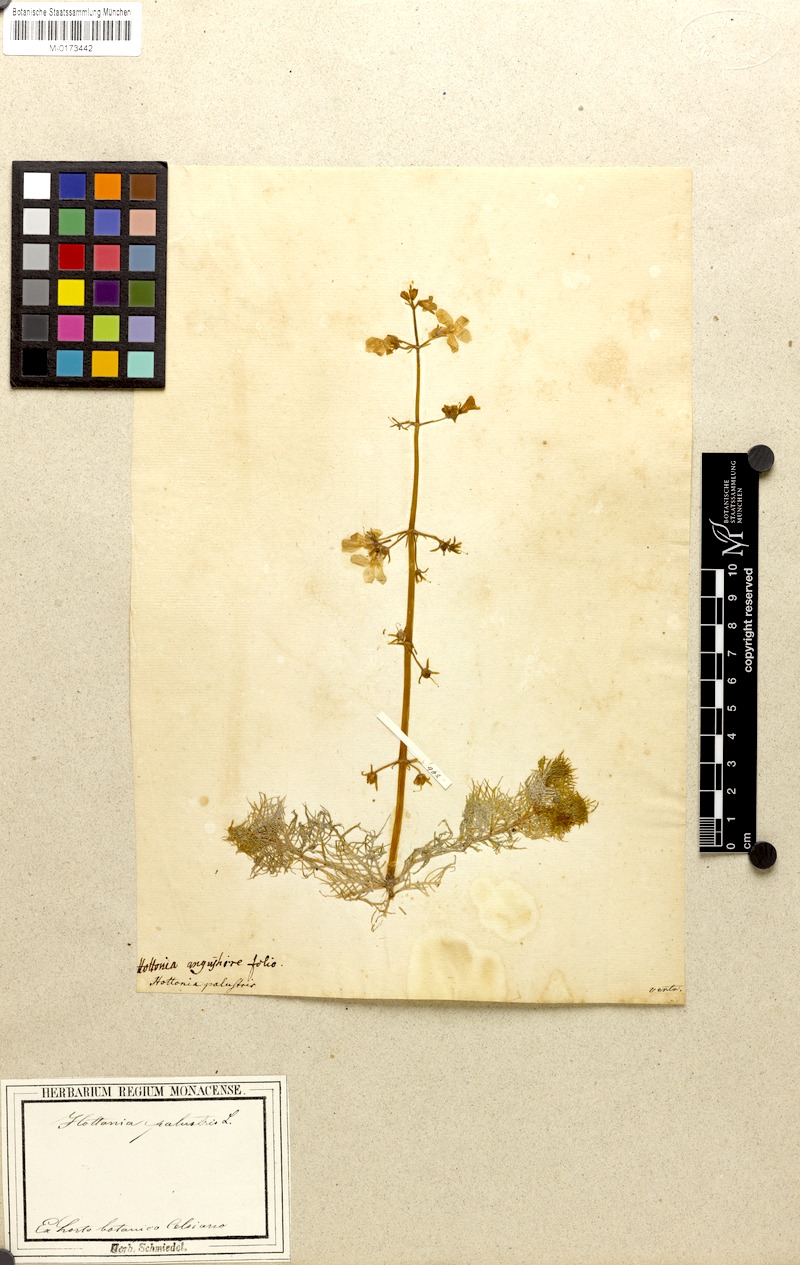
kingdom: Plantae
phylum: Tracheophyta
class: Magnoliopsida
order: Ericales
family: Primulaceae
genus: Hottonia
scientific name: Hottonia palustris
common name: Water-violet
